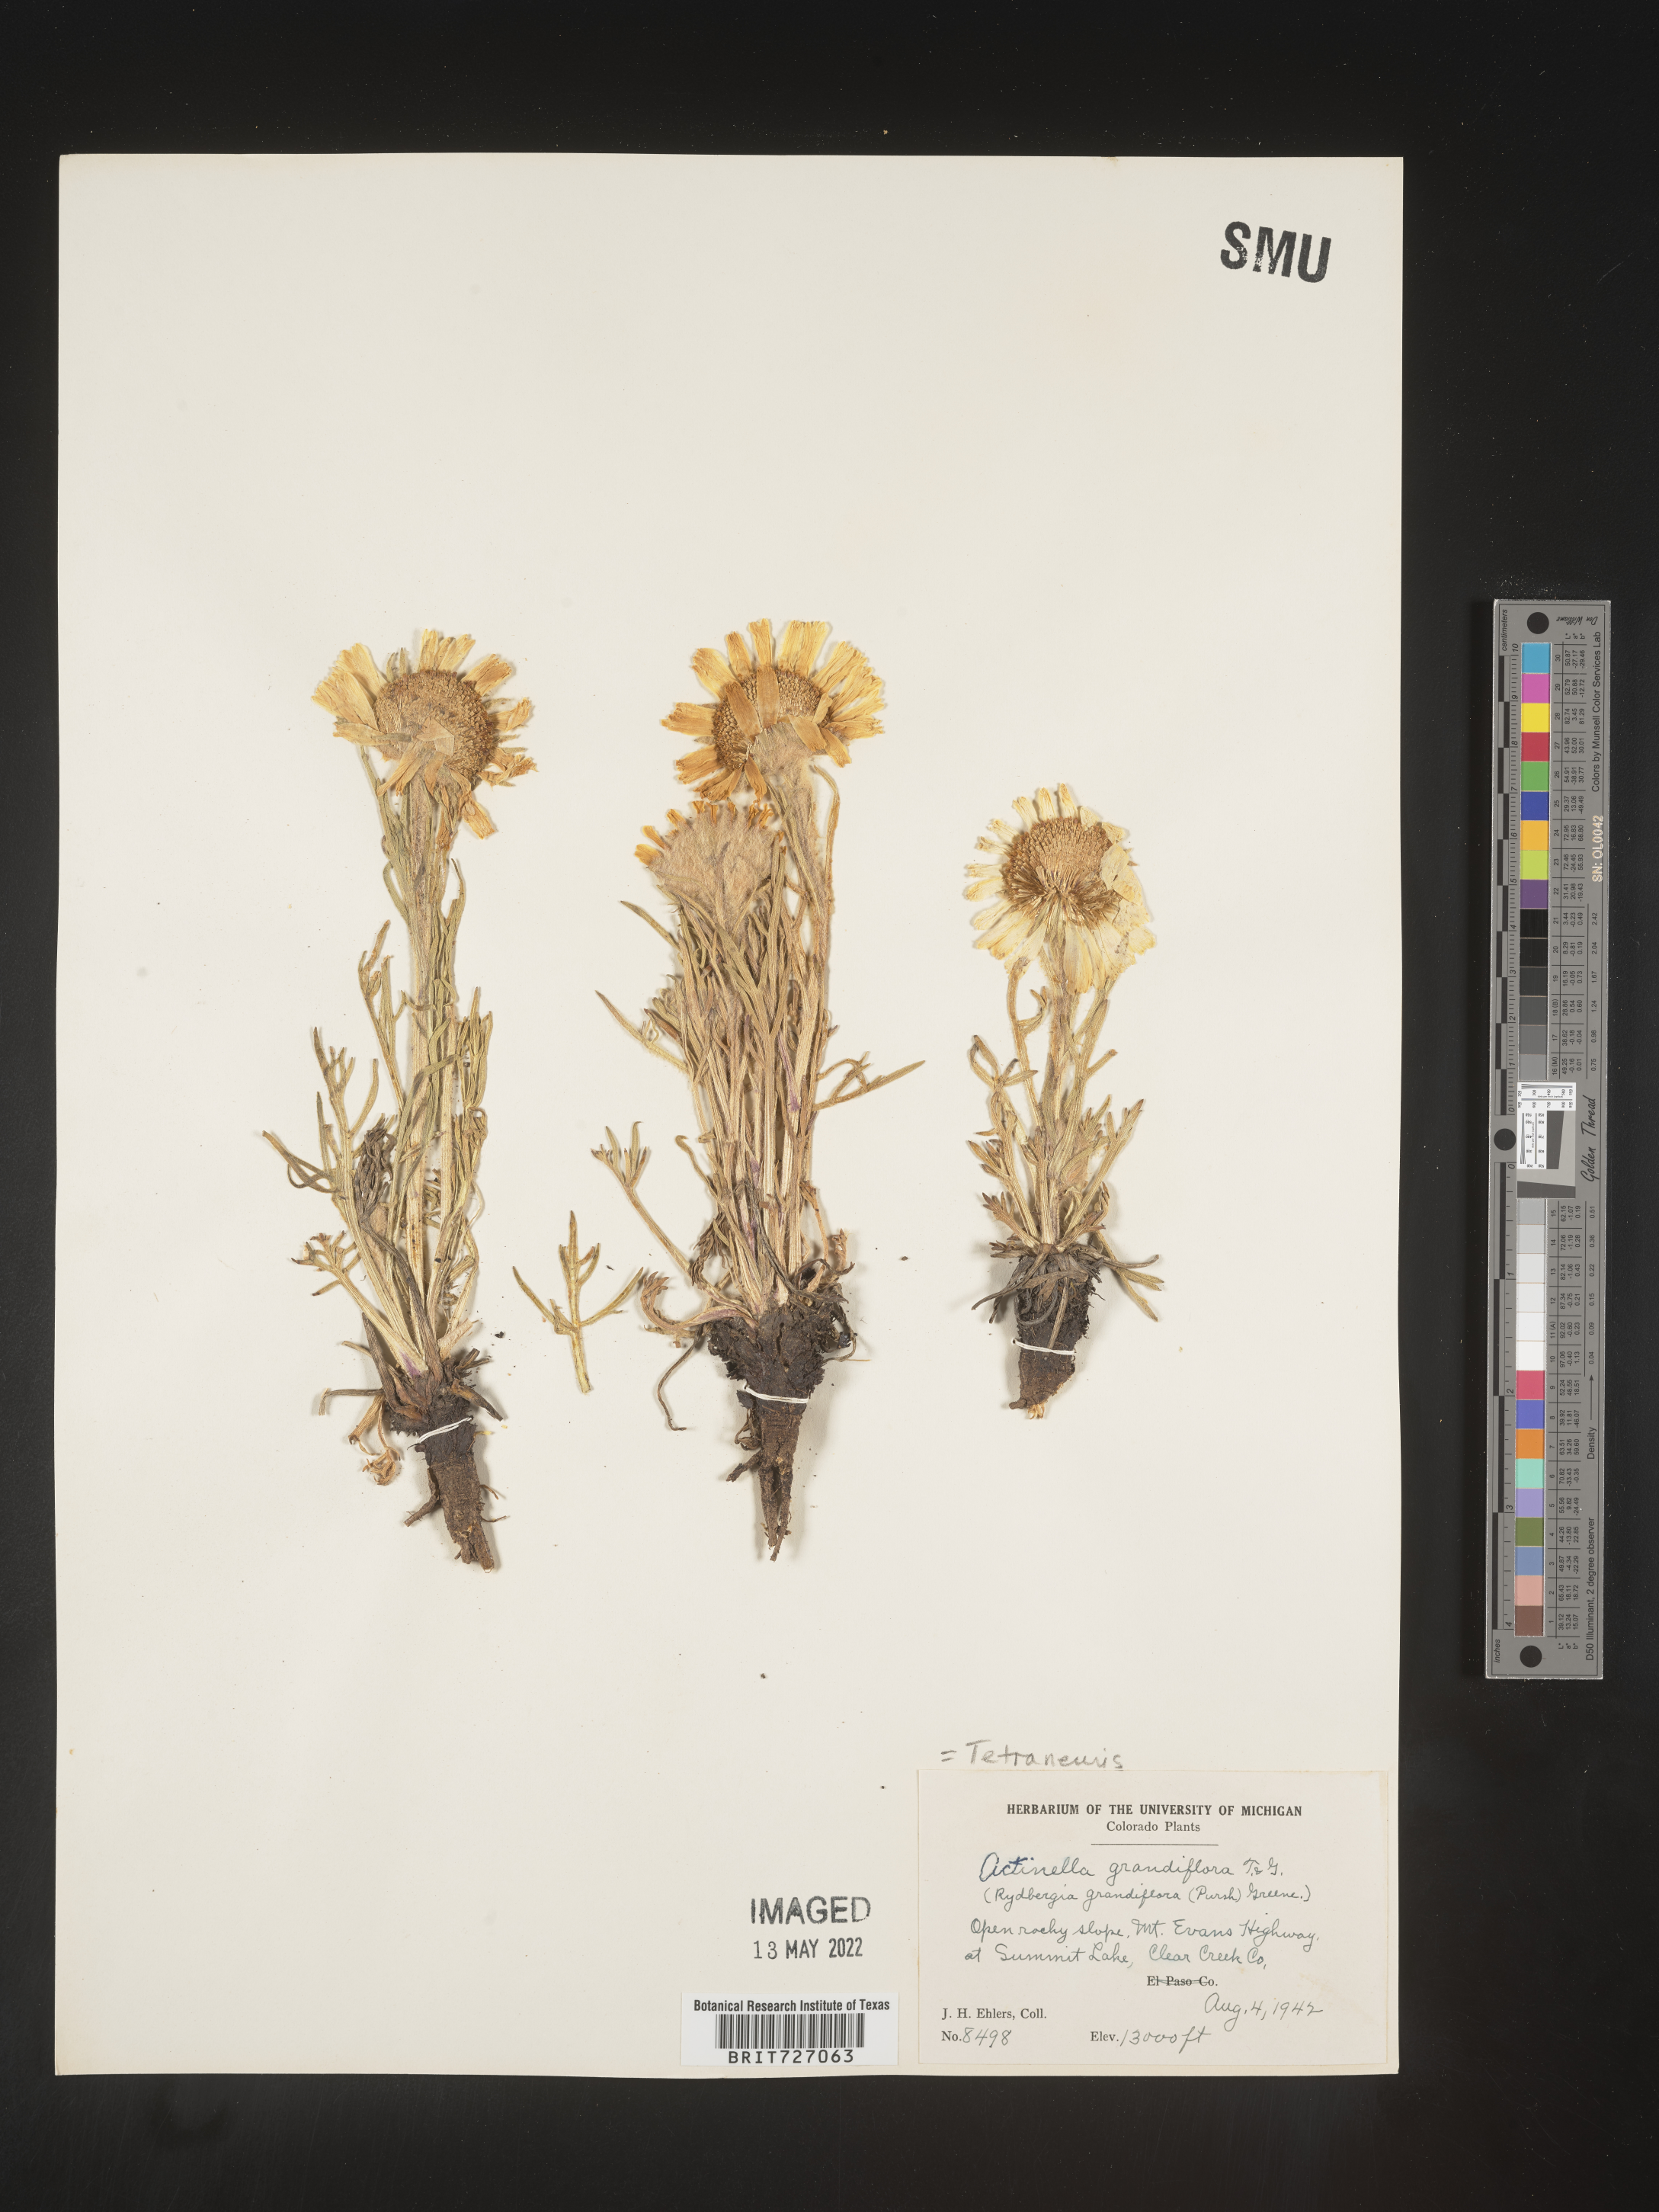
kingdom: Plantae
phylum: Tracheophyta
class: Magnoliopsida
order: Asterales
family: Asteraceae
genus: Hymenoxys
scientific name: Hymenoxys grandiflora
